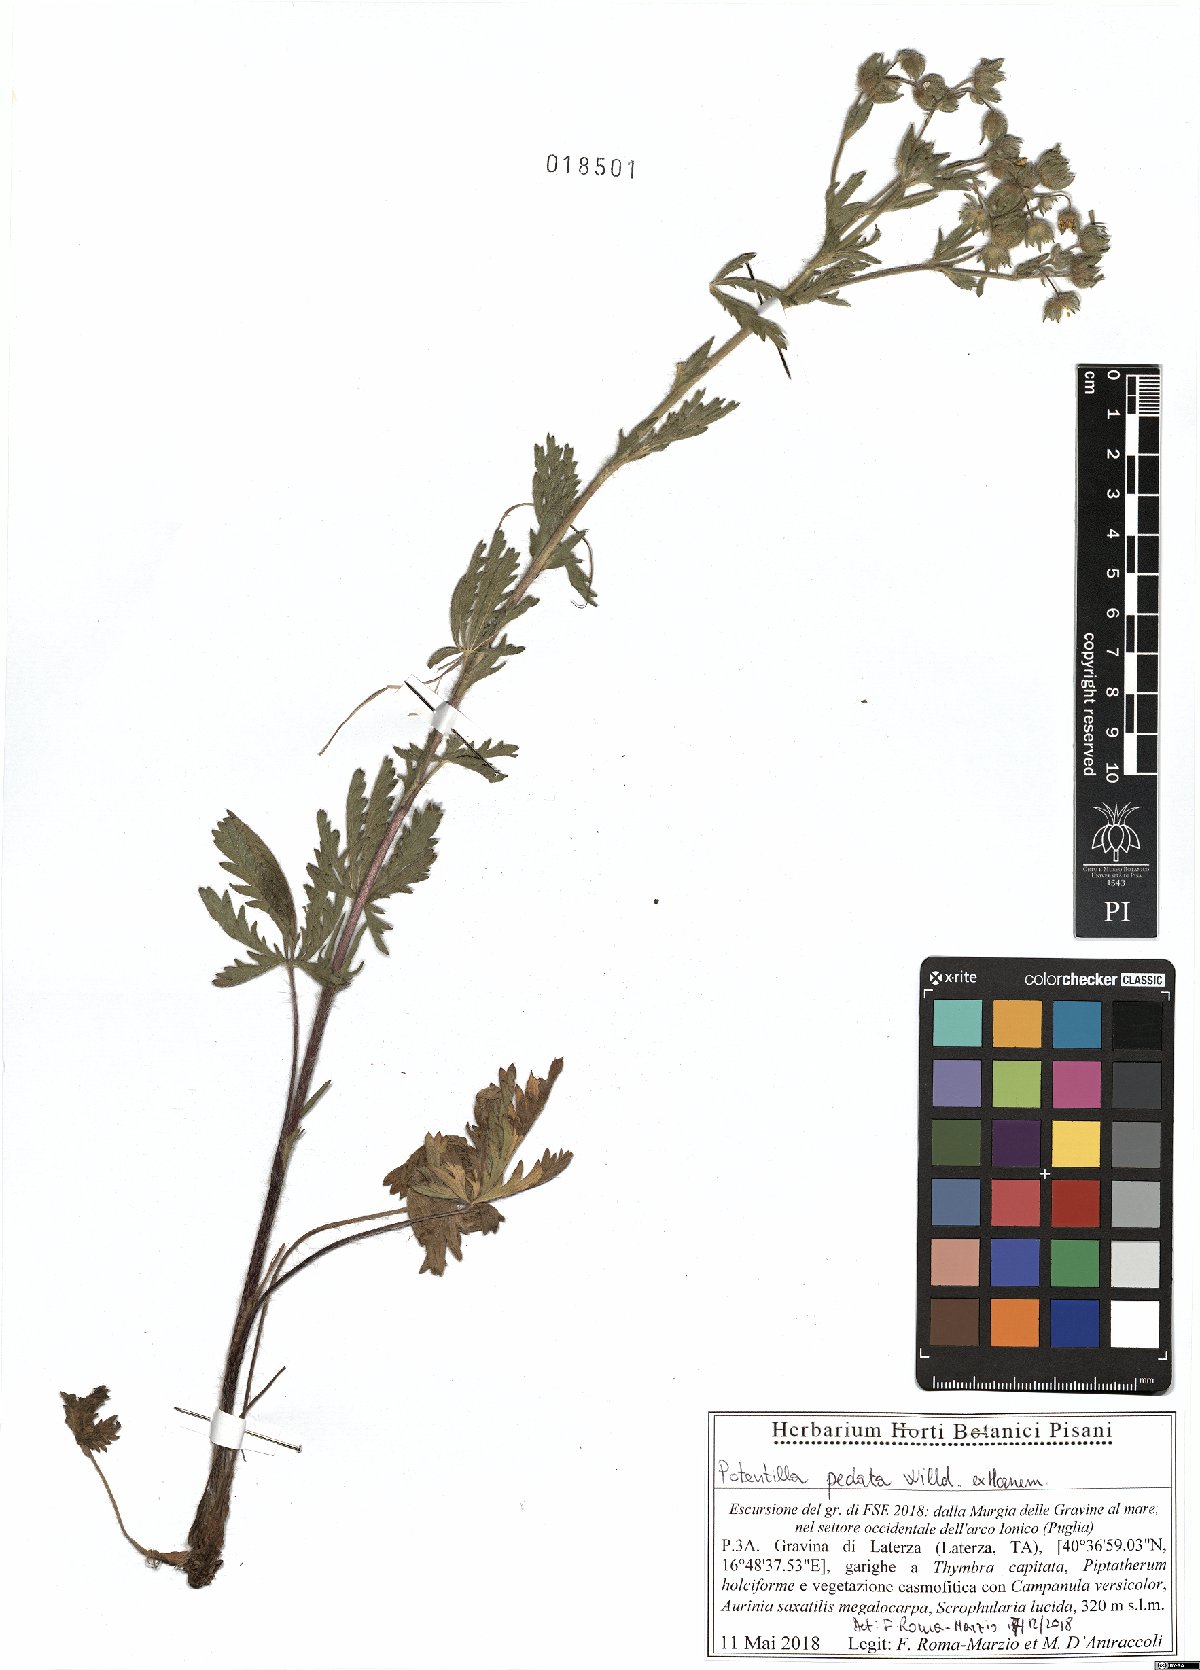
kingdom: Plantae
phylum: Tracheophyta
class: Magnoliopsida
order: Rosales
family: Rosaceae
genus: Potentilla
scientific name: Potentilla pedata
